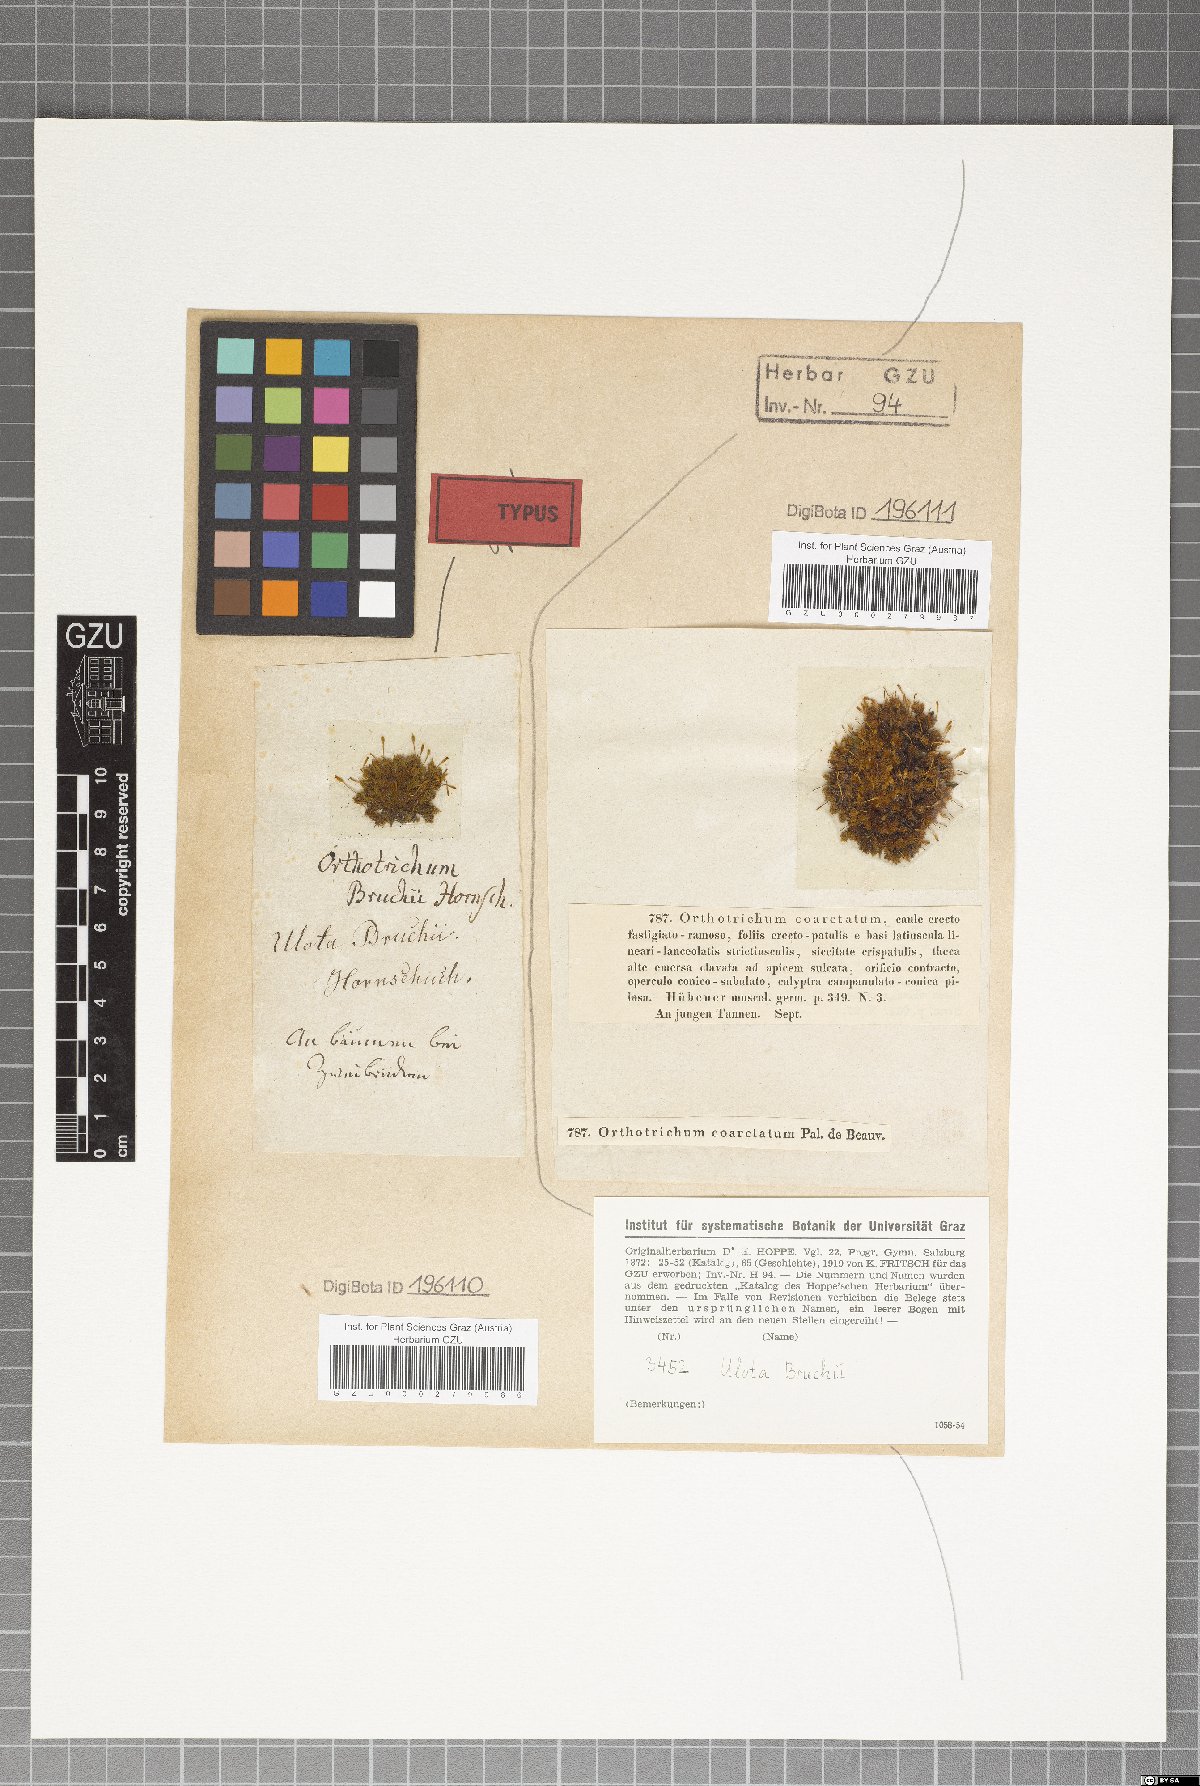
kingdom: Plantae
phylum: Bryophyta
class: Bryopsida
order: Orthotrichales
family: Orthotrichaceae
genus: Ulota
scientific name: Ulota bruchii
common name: Bruch's pincushion
